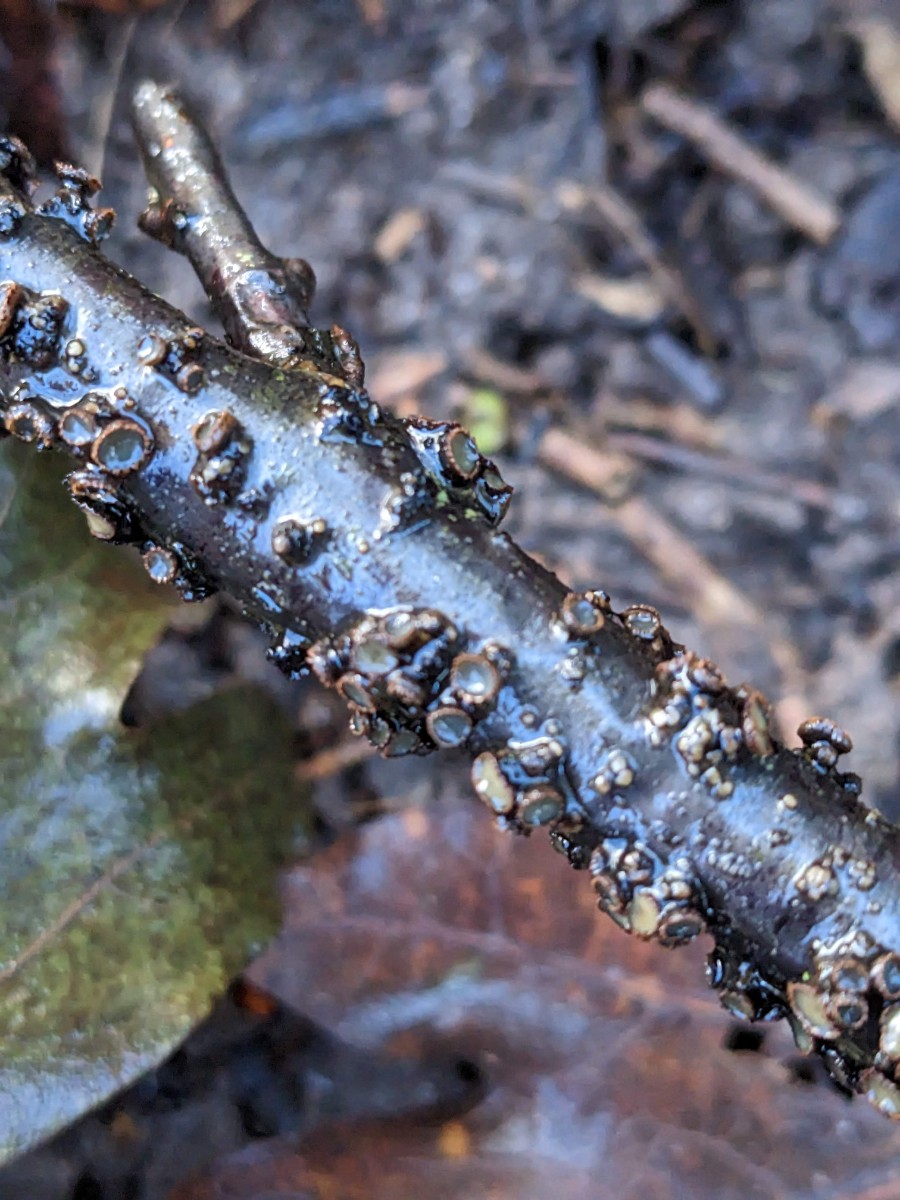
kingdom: Fungi
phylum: Ascomycota
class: Leotiomycetes
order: Helotiales
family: Godroniaceae
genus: Godronia
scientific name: Godronia ribis
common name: ribs-urneskive
